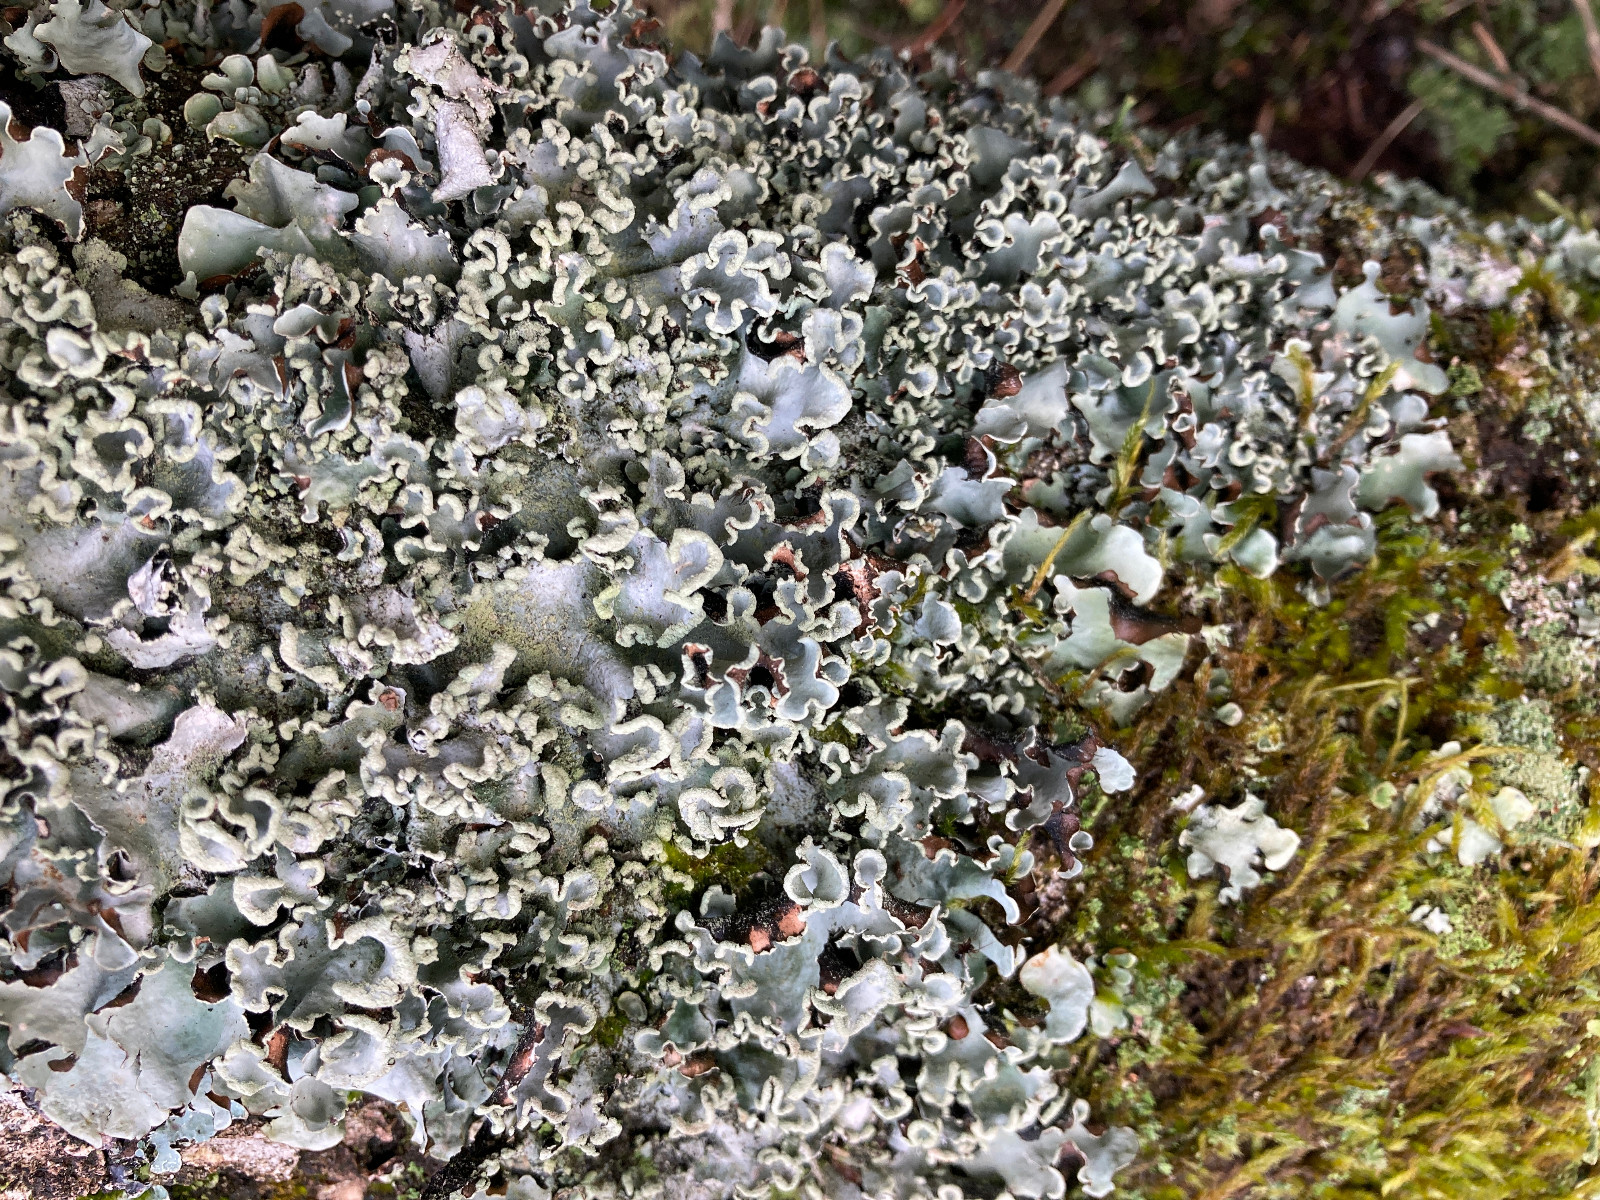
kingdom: Fungi
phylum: Ascomycota
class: Lecanoromycetes
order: Lecanorales
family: Parmeliaceae
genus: Parmotrema
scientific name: Parmotrema perlatum
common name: trådet skållav
